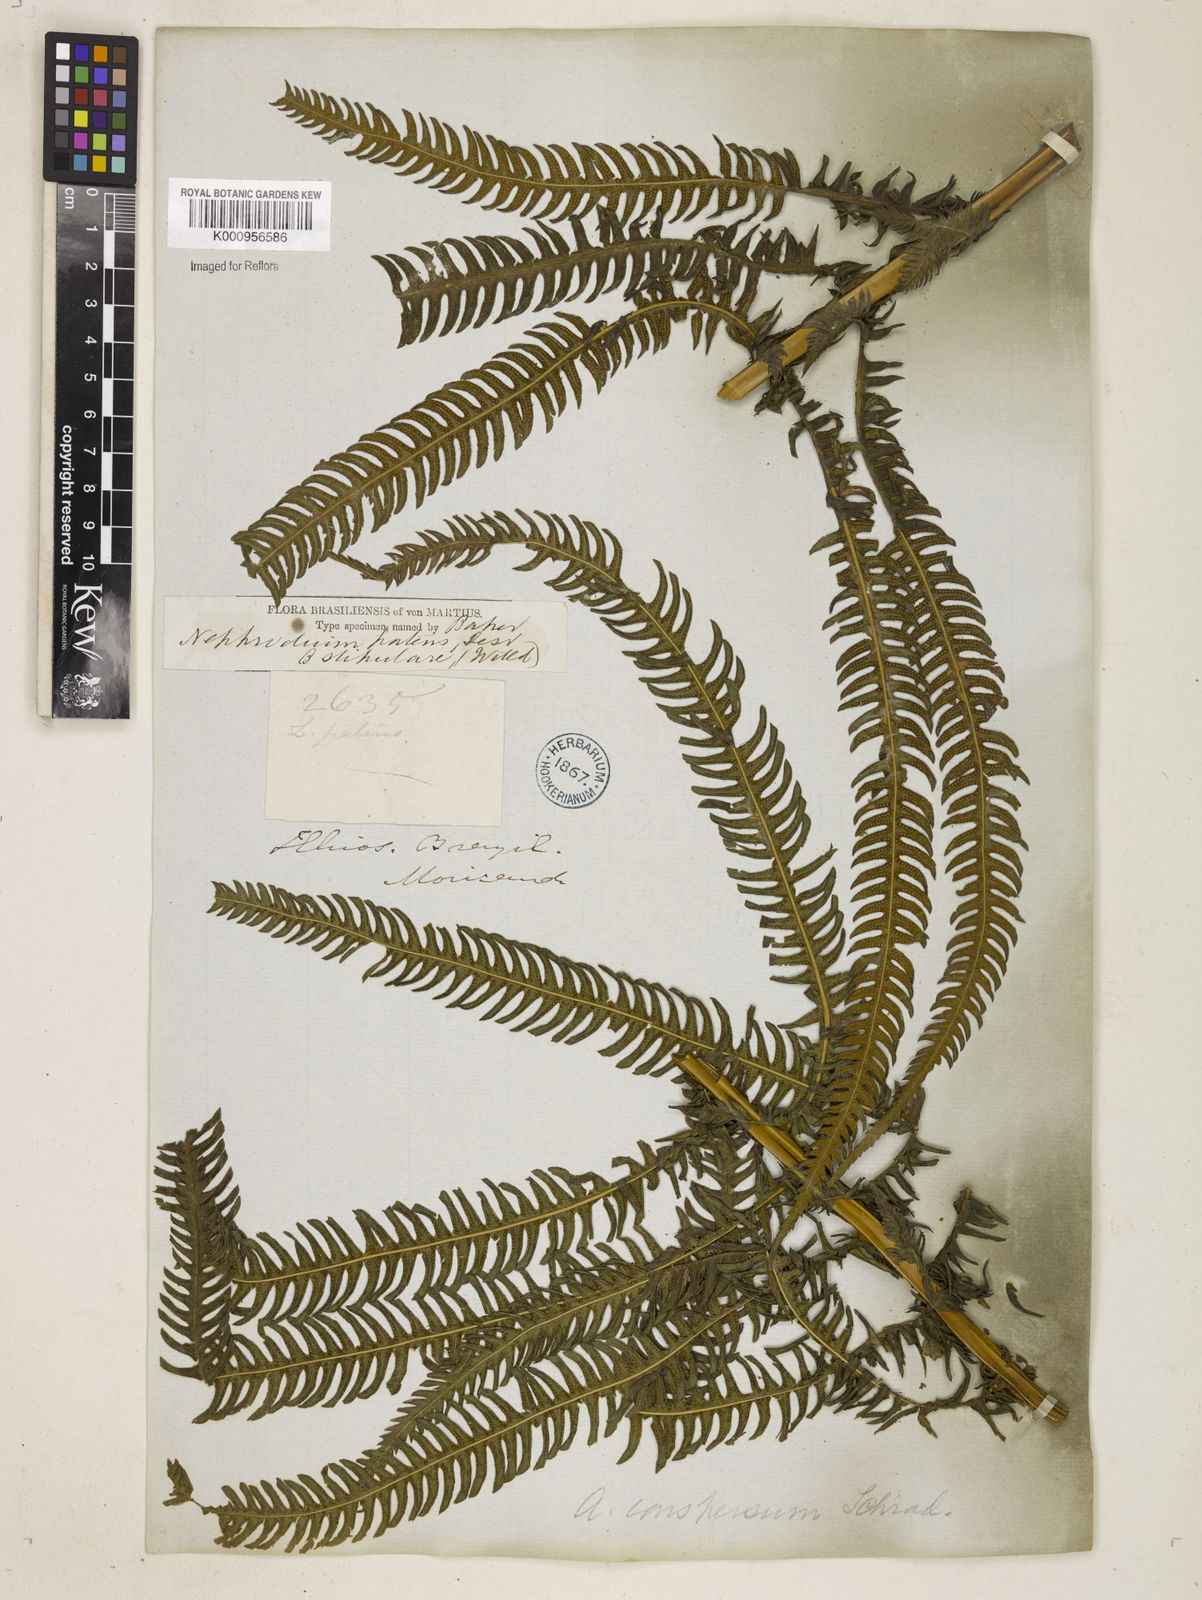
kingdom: Plantae
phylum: Tracheophyta
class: Polypodiopsida
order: Polypodiales
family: Thelypteridaceae
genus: Pelazoneuron
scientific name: Pelazoneuron patens
